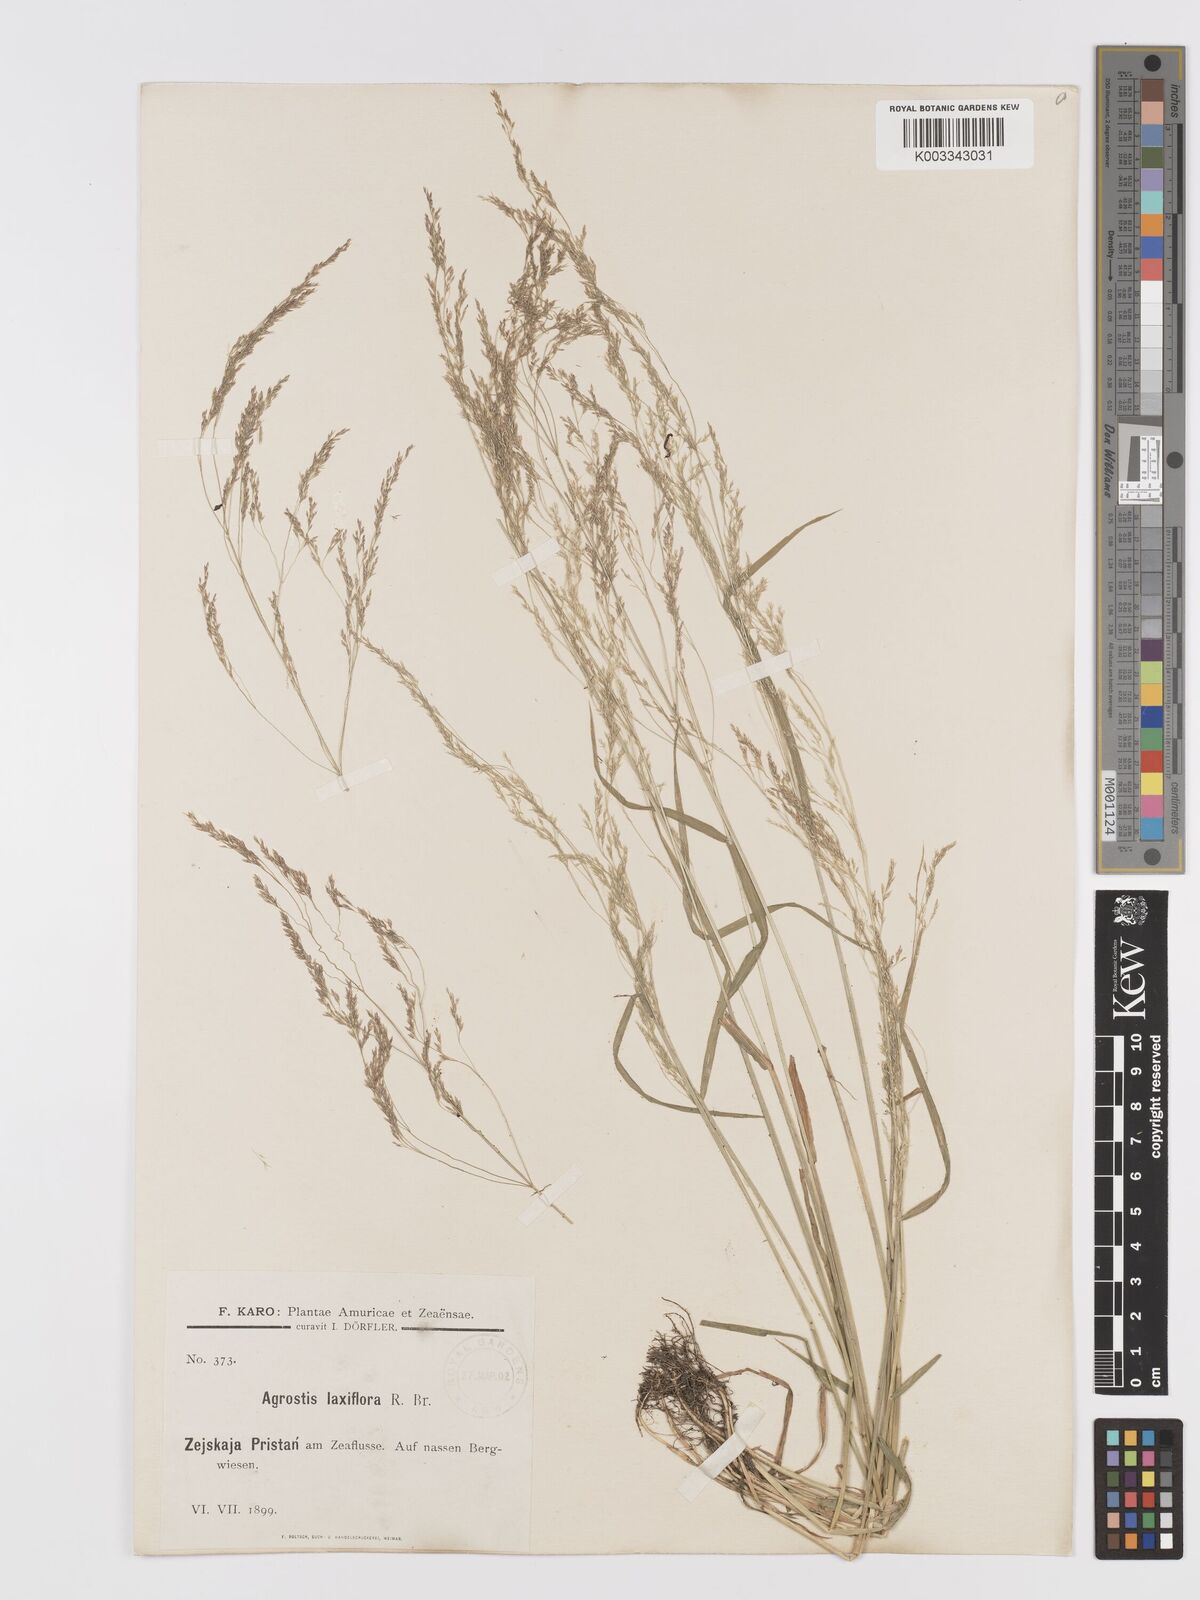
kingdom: Plantae
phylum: Tracheophyta
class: Liliopsida
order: Poales
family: Poaceae
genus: Agrostis
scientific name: Agrostis clavata
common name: Clavate bent
